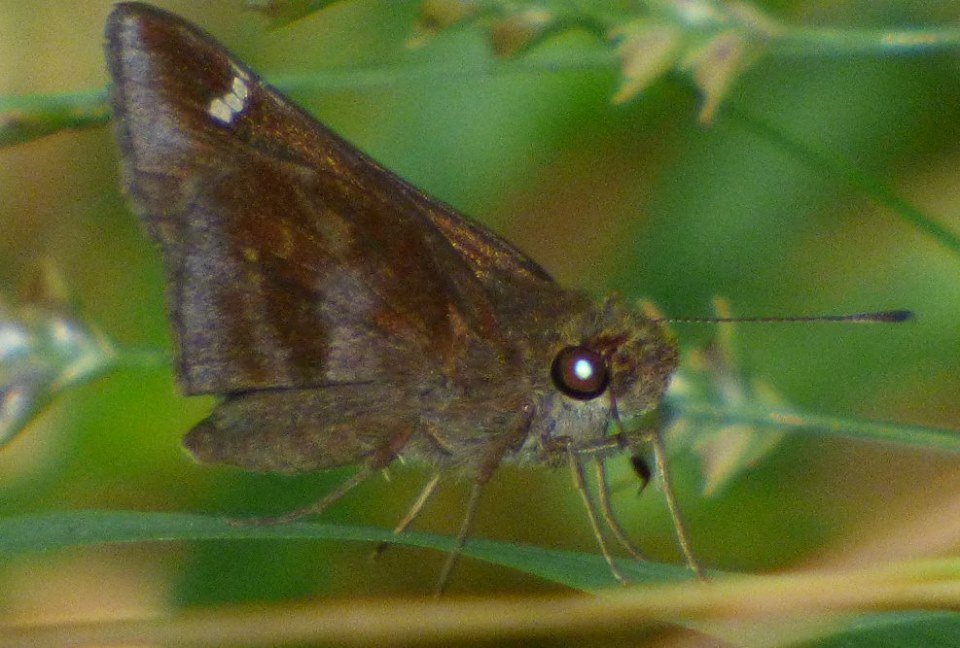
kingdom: Animalia
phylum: Arthropoda
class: Insecta
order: Lepidoptera
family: Hesperiidae
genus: Lerema
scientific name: Lerema accius
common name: Clouded Skipper
